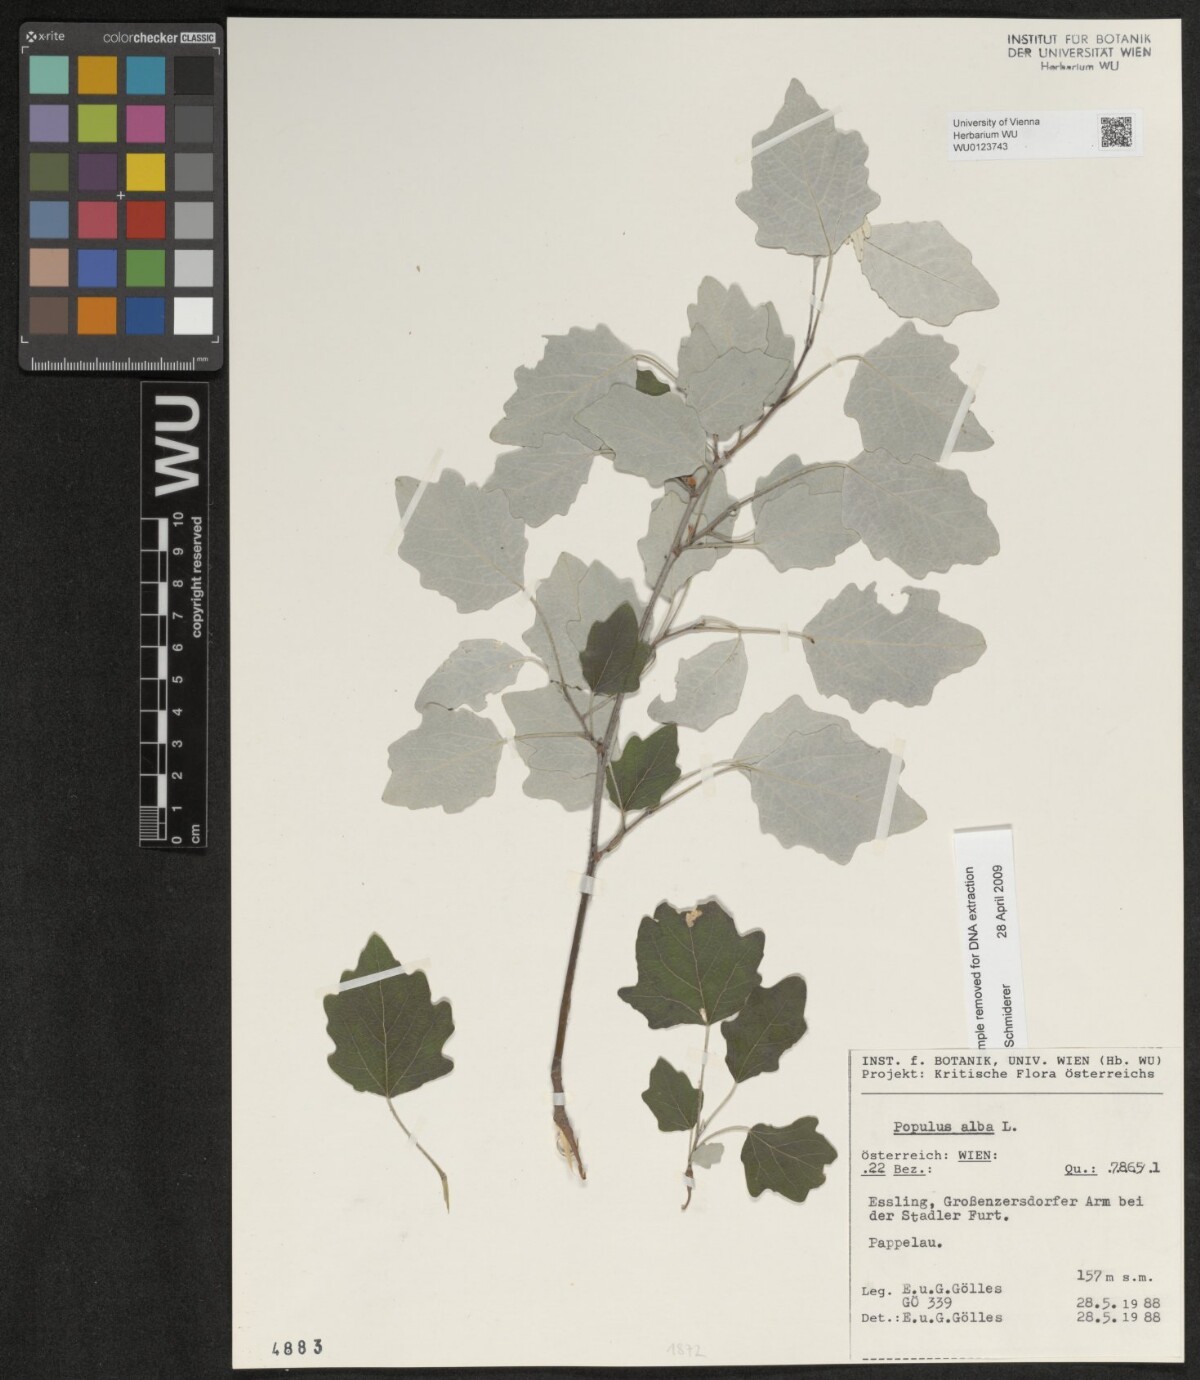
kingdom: Plantae
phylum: Tracheophyta
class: Magnoliopsida
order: Malpighiales
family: Salicaceae
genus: Populus
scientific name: Populus alba
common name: White poplar
